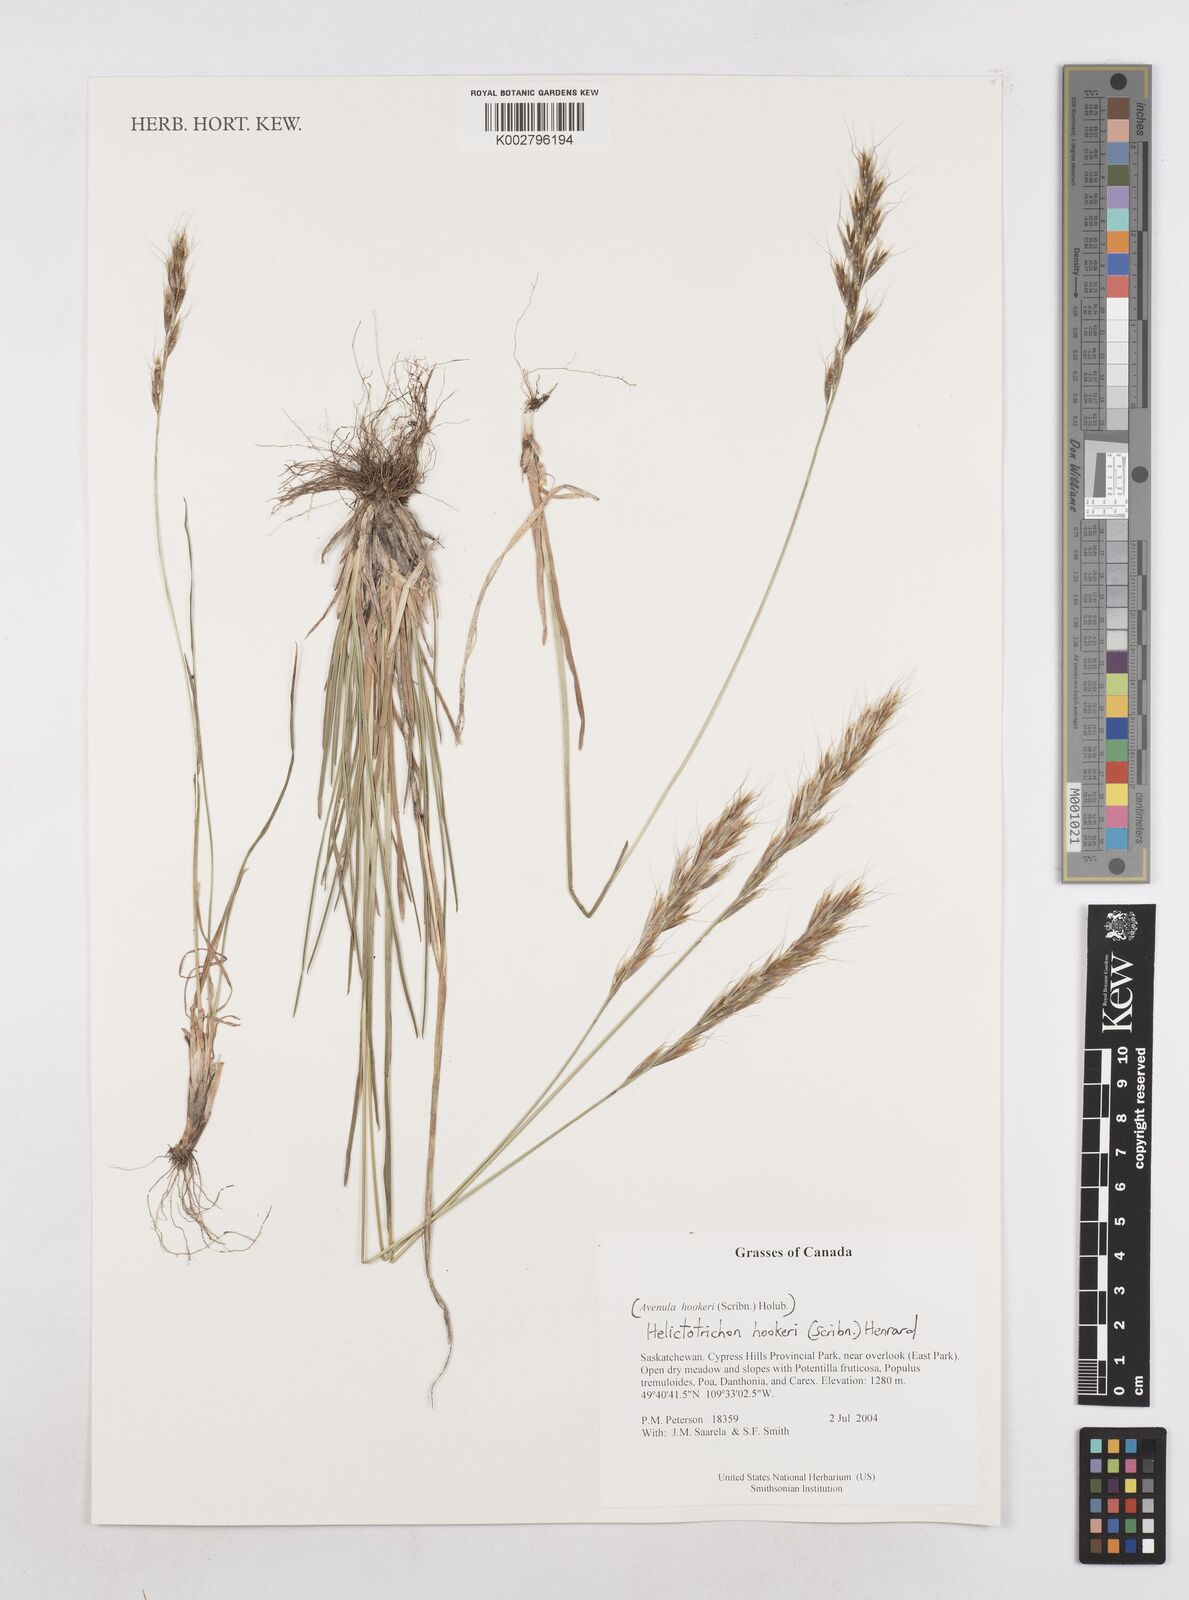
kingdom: Plantae
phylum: Tracheophyta
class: Liliopsida
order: Poales
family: Poaceae
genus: Helictochloa
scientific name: Helictochloa hookeri
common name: Hooker's alpine oatgrass
